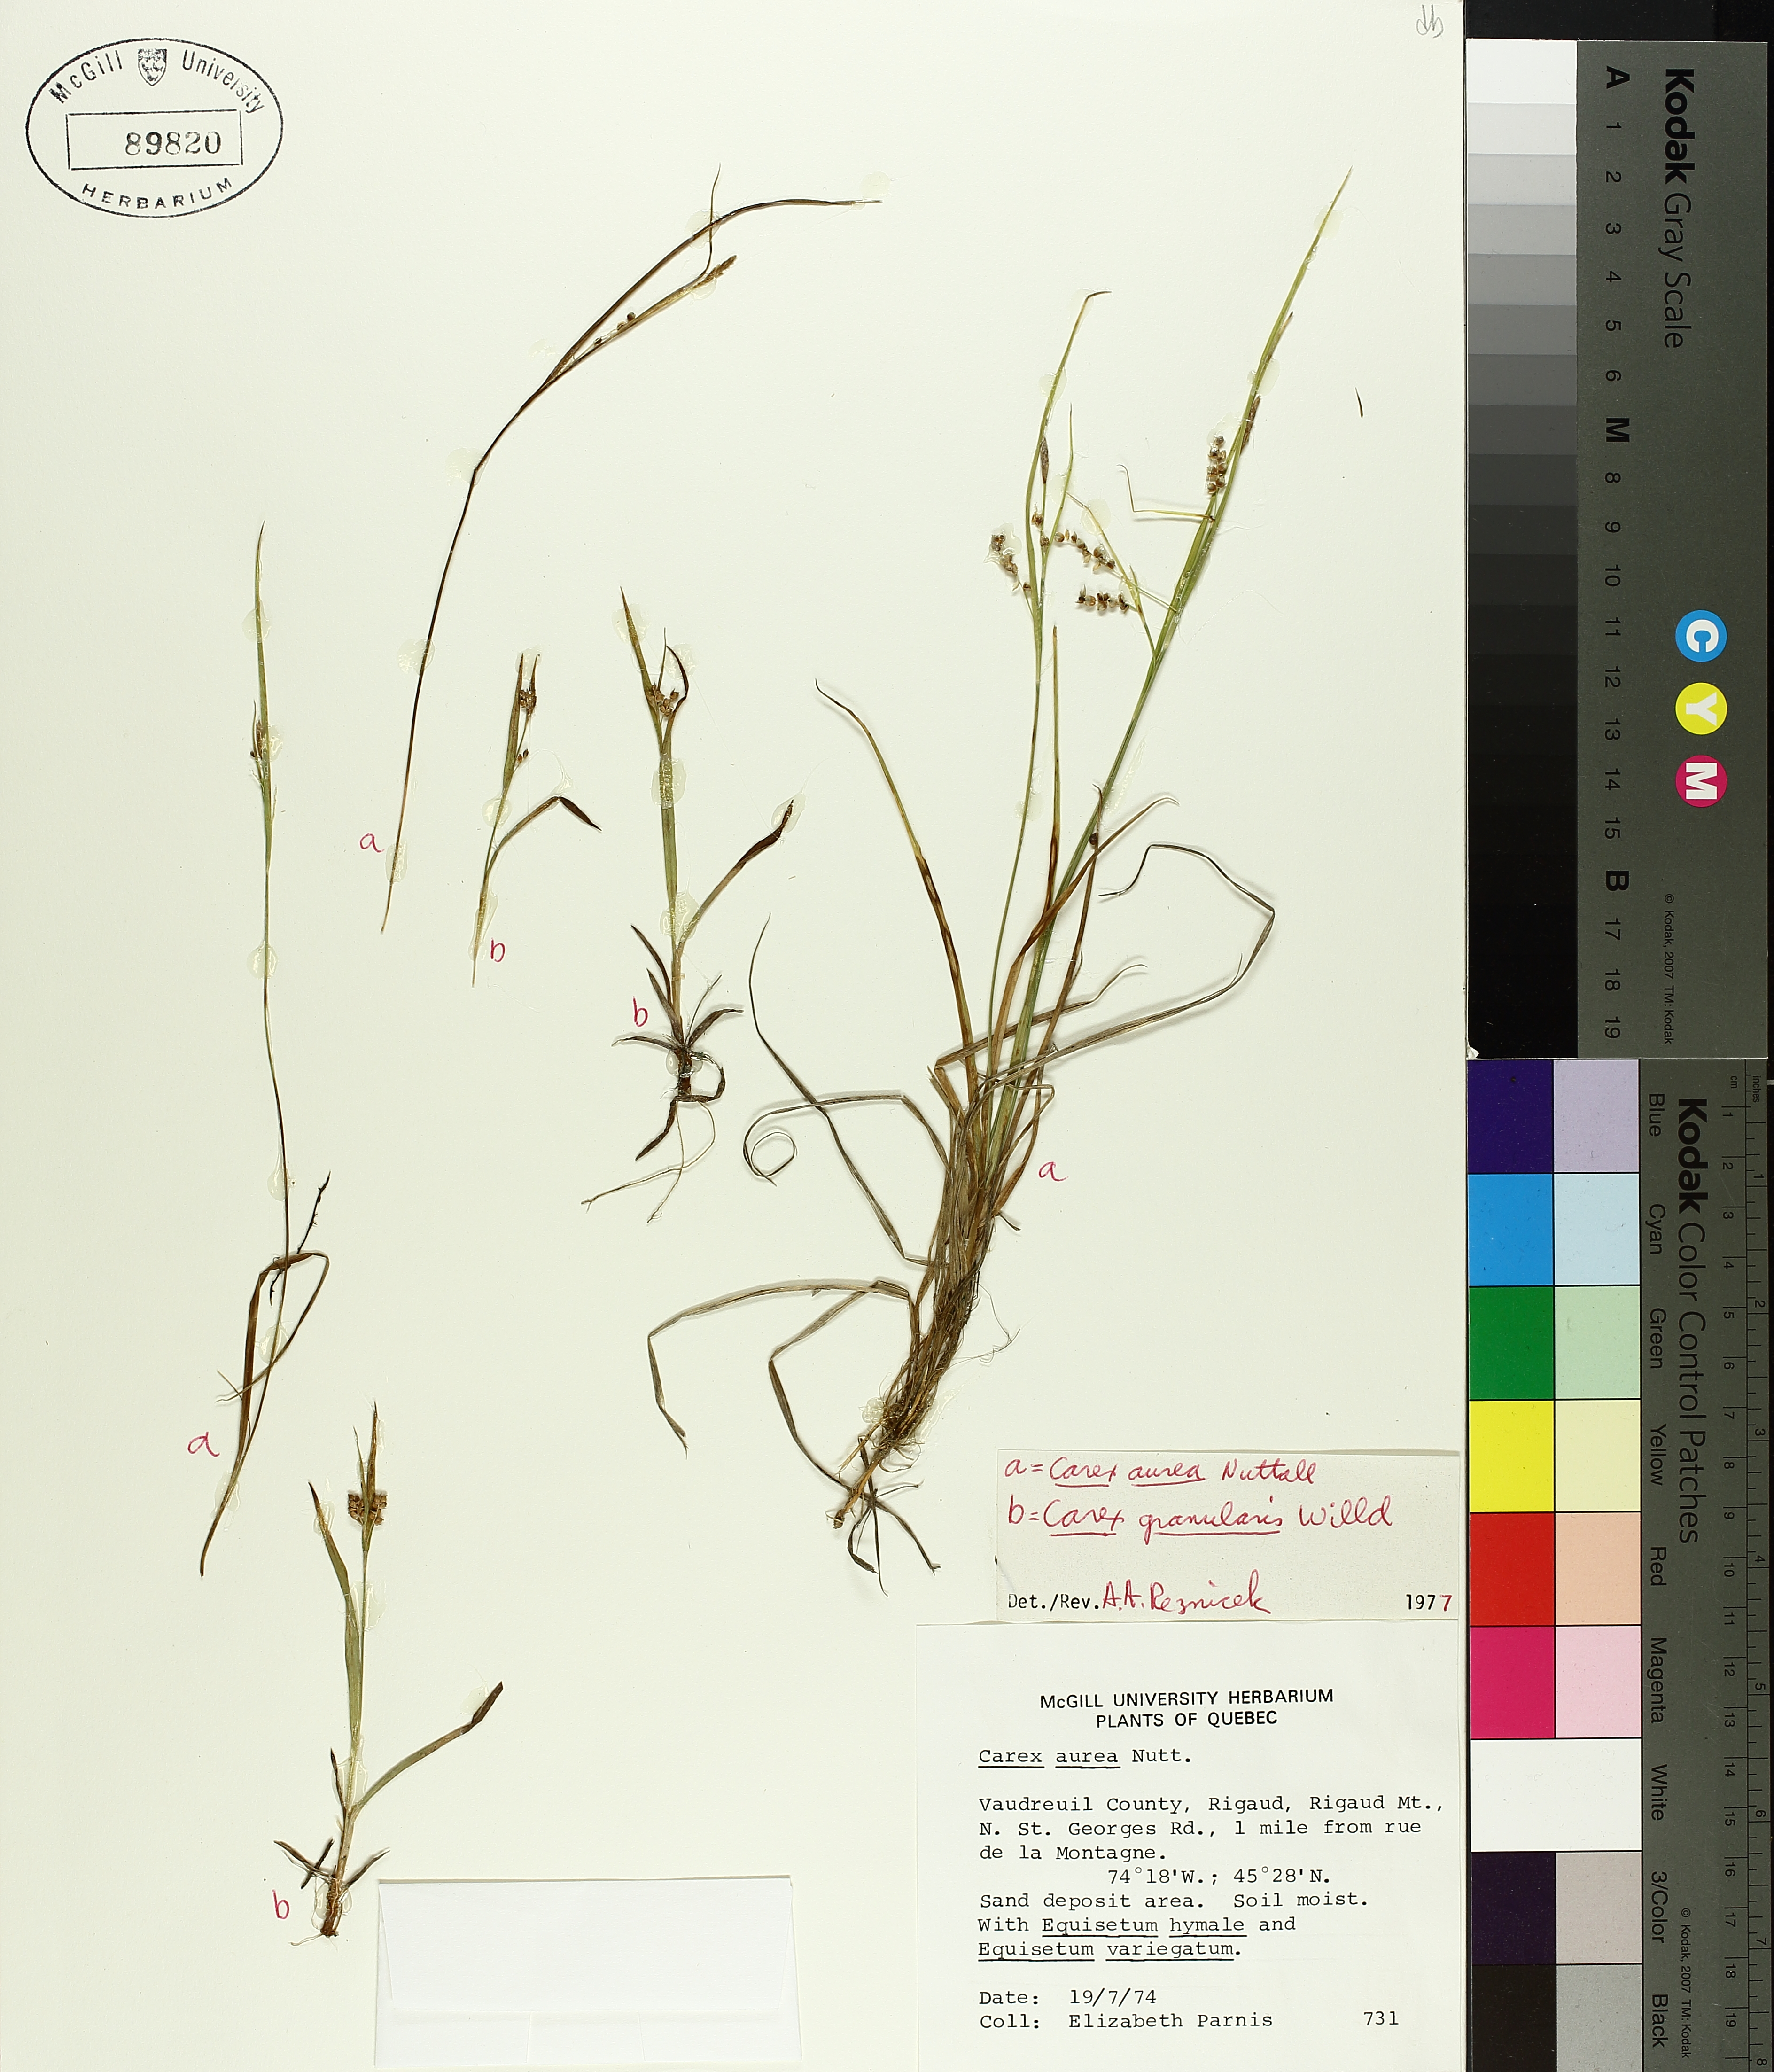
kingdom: Plantae
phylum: Tracheophyta
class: Liliopsida
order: Poales
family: Cyperaceae
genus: Carex
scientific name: Carex aurea
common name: Golden sedge
